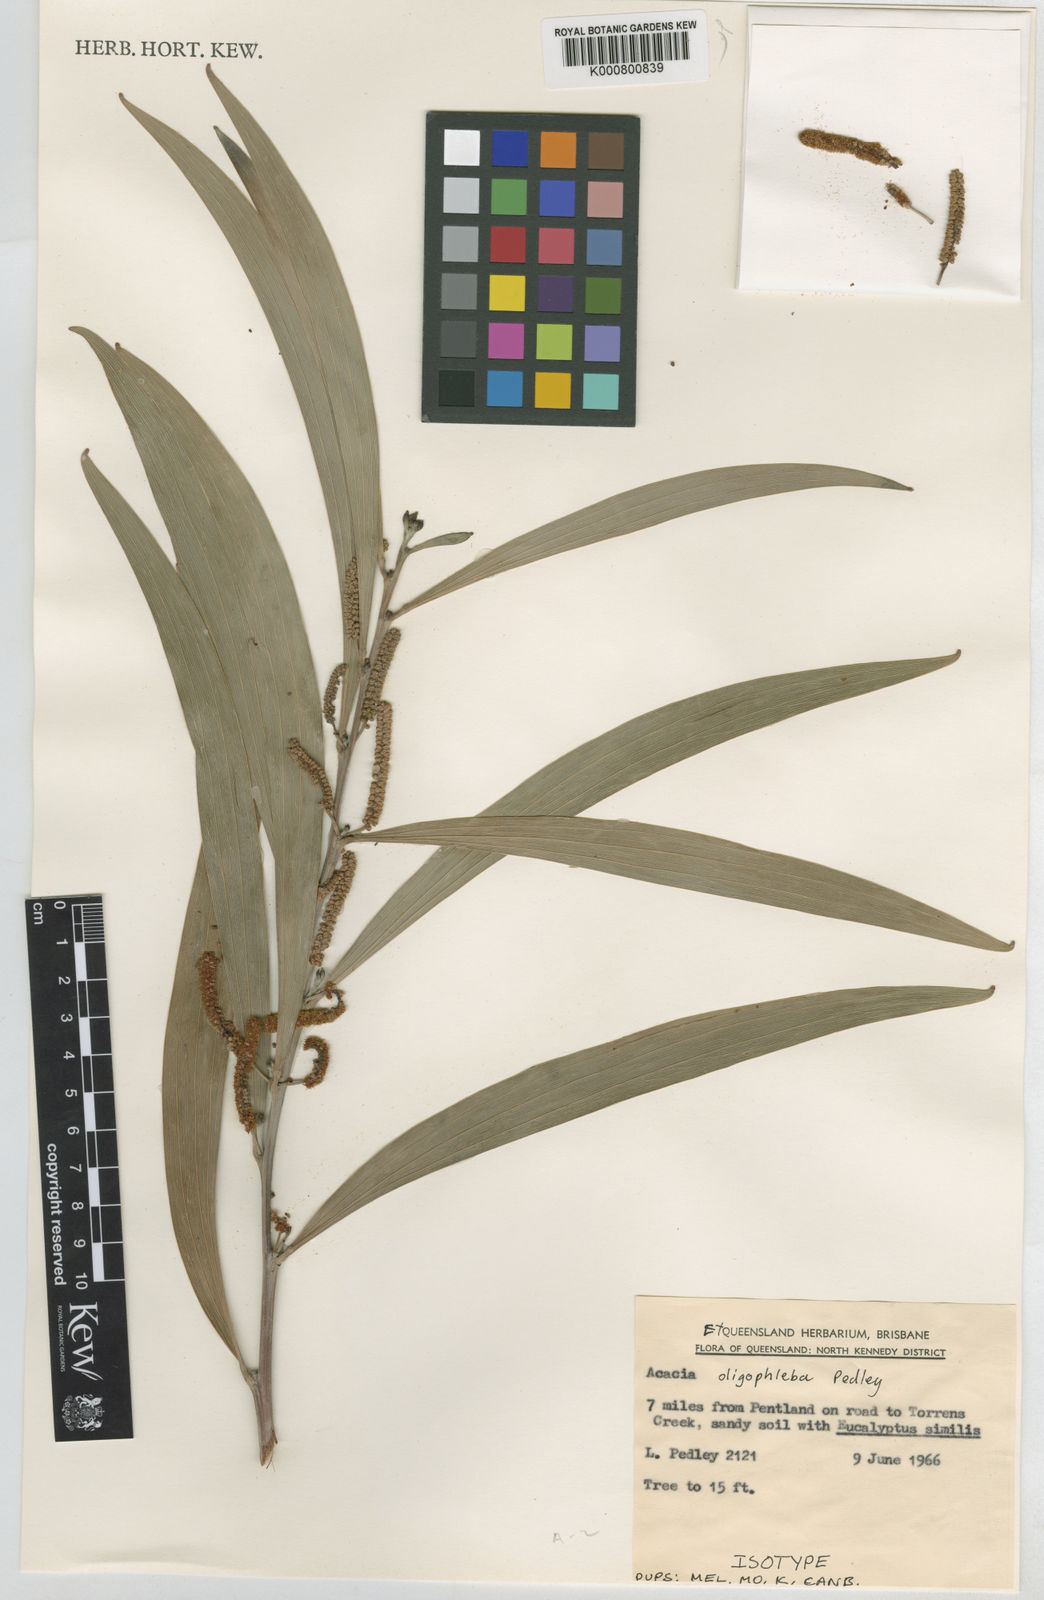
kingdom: Plantae
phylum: Tracheophyta
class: Magnoliopsida
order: Fabales
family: Fabaceae
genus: Acacia
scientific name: Acacia cowleana
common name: Halls creek wattle
